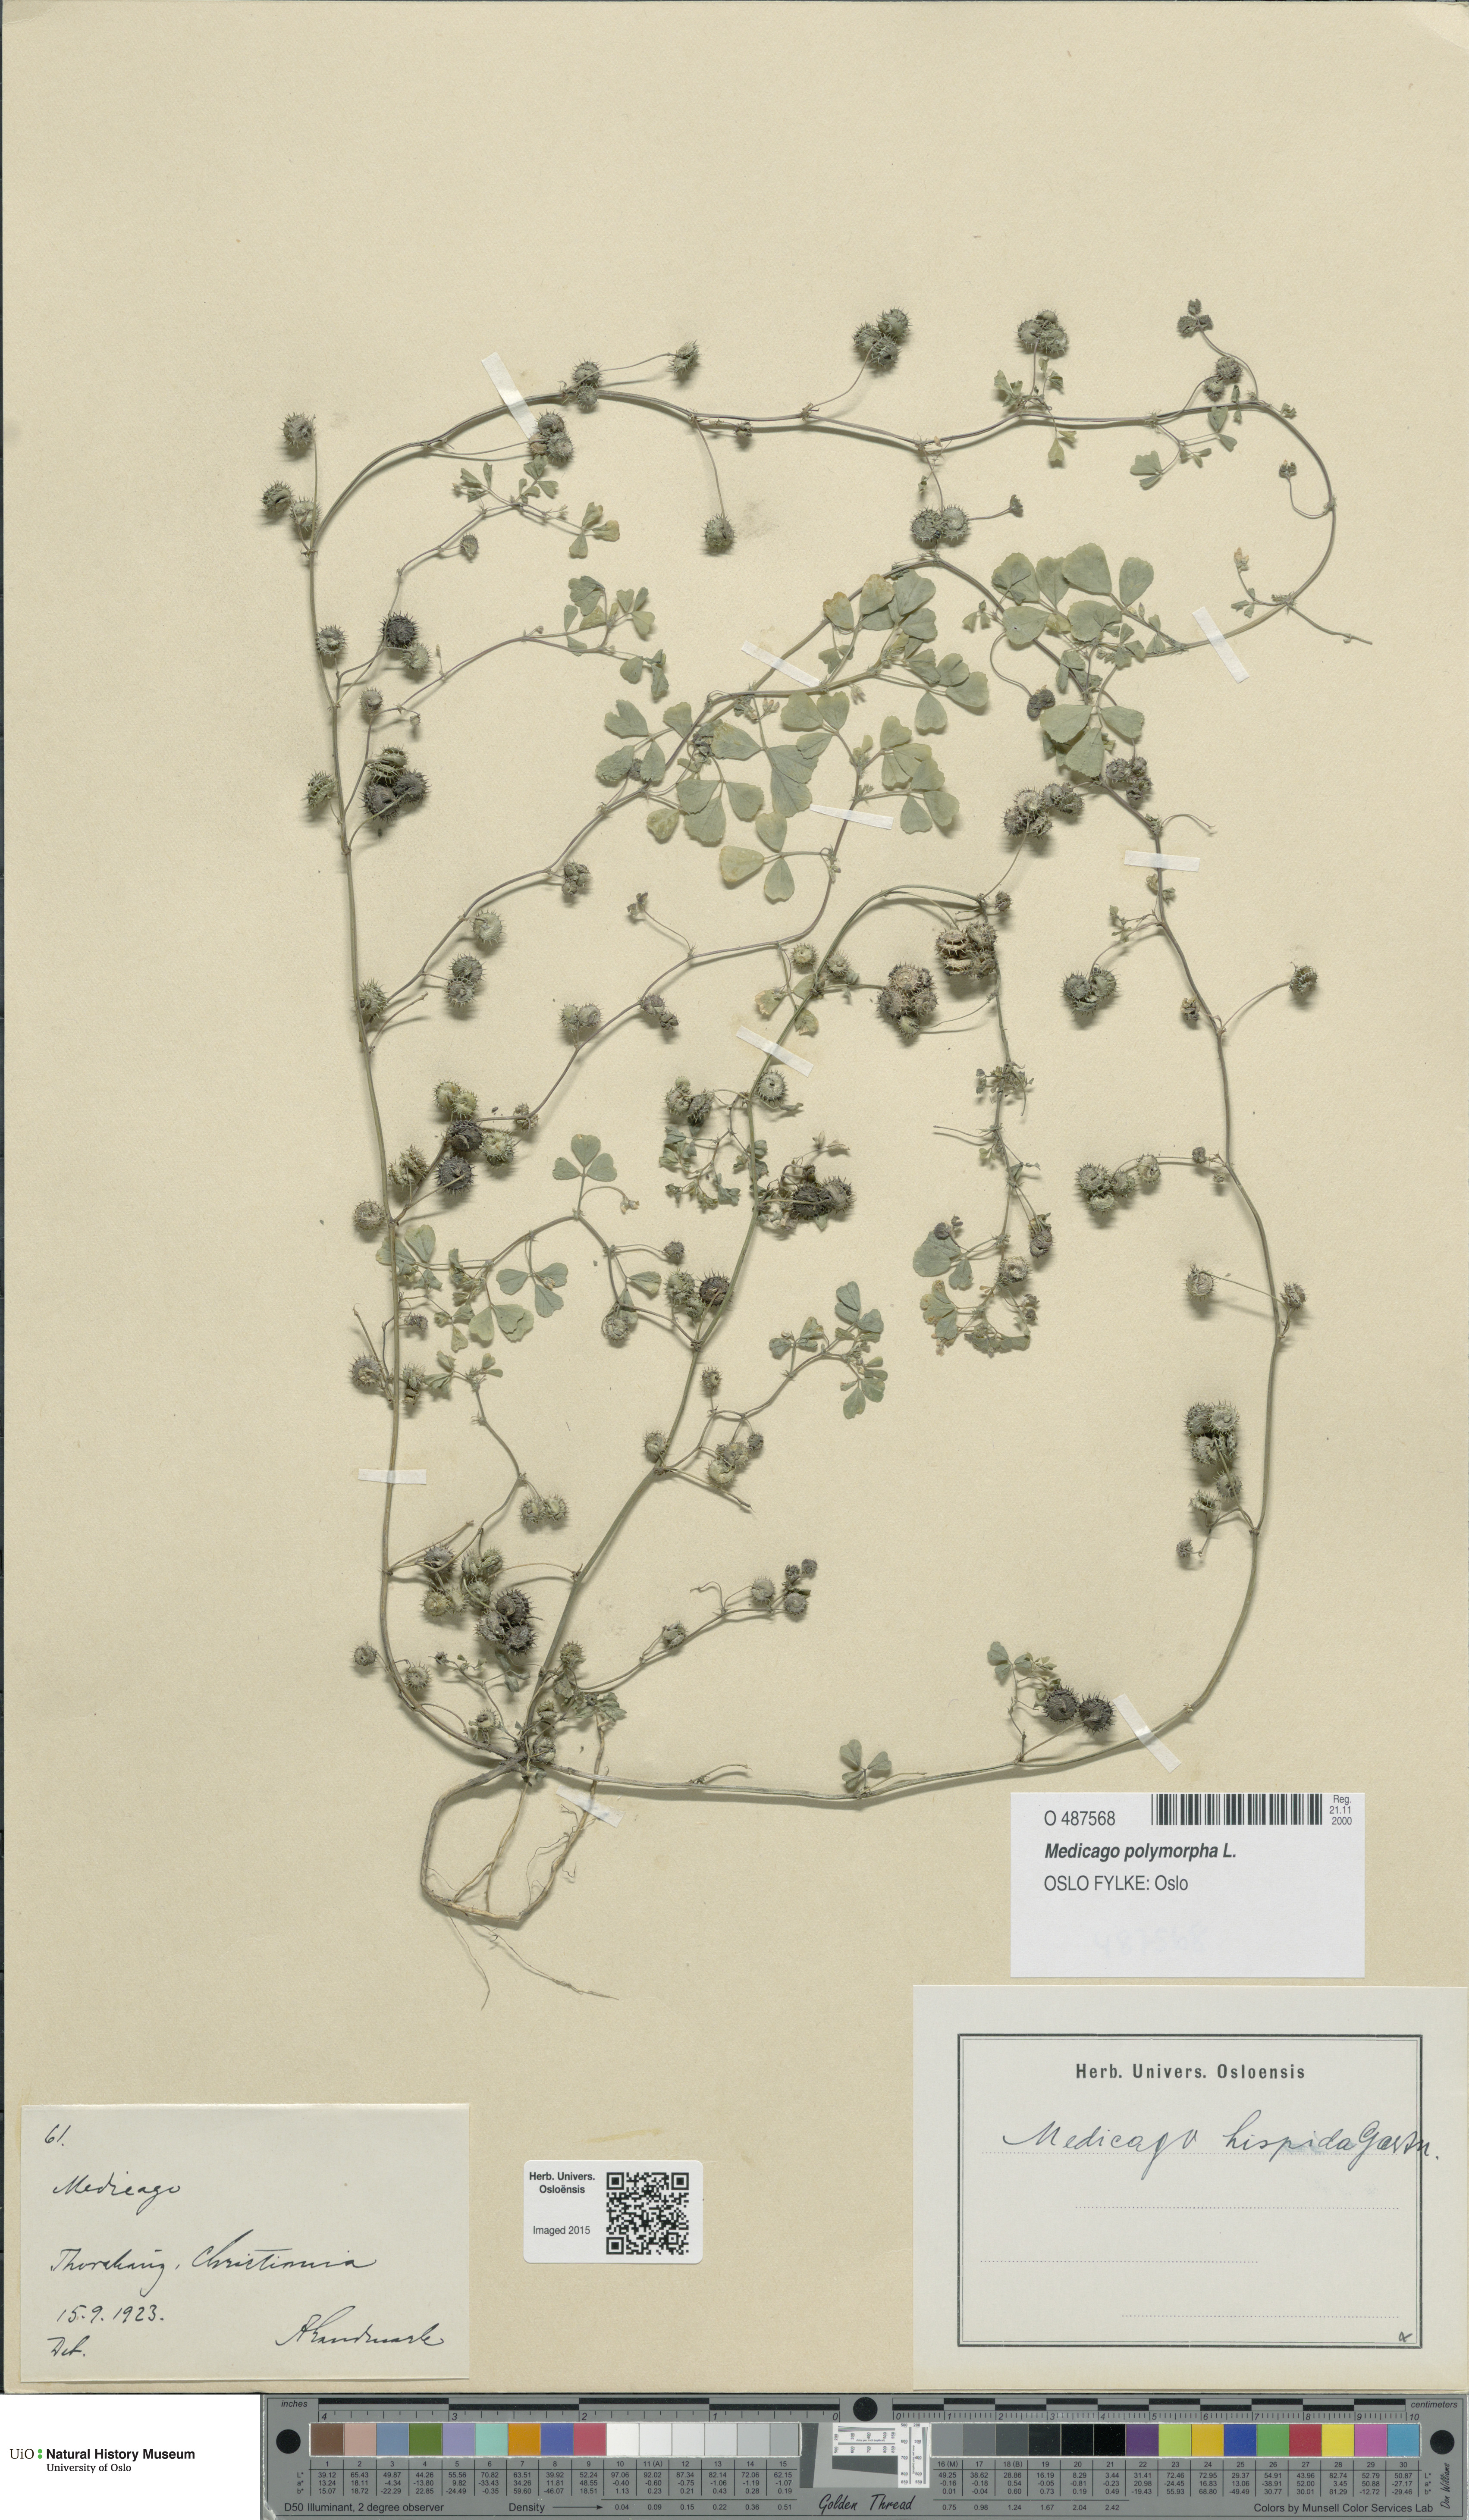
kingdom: Plantae
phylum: Tracheophyta
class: Magnoliopsida
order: Fabales
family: Fabaceae
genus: Medicago
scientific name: Medicago polymorpha
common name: Burclover
